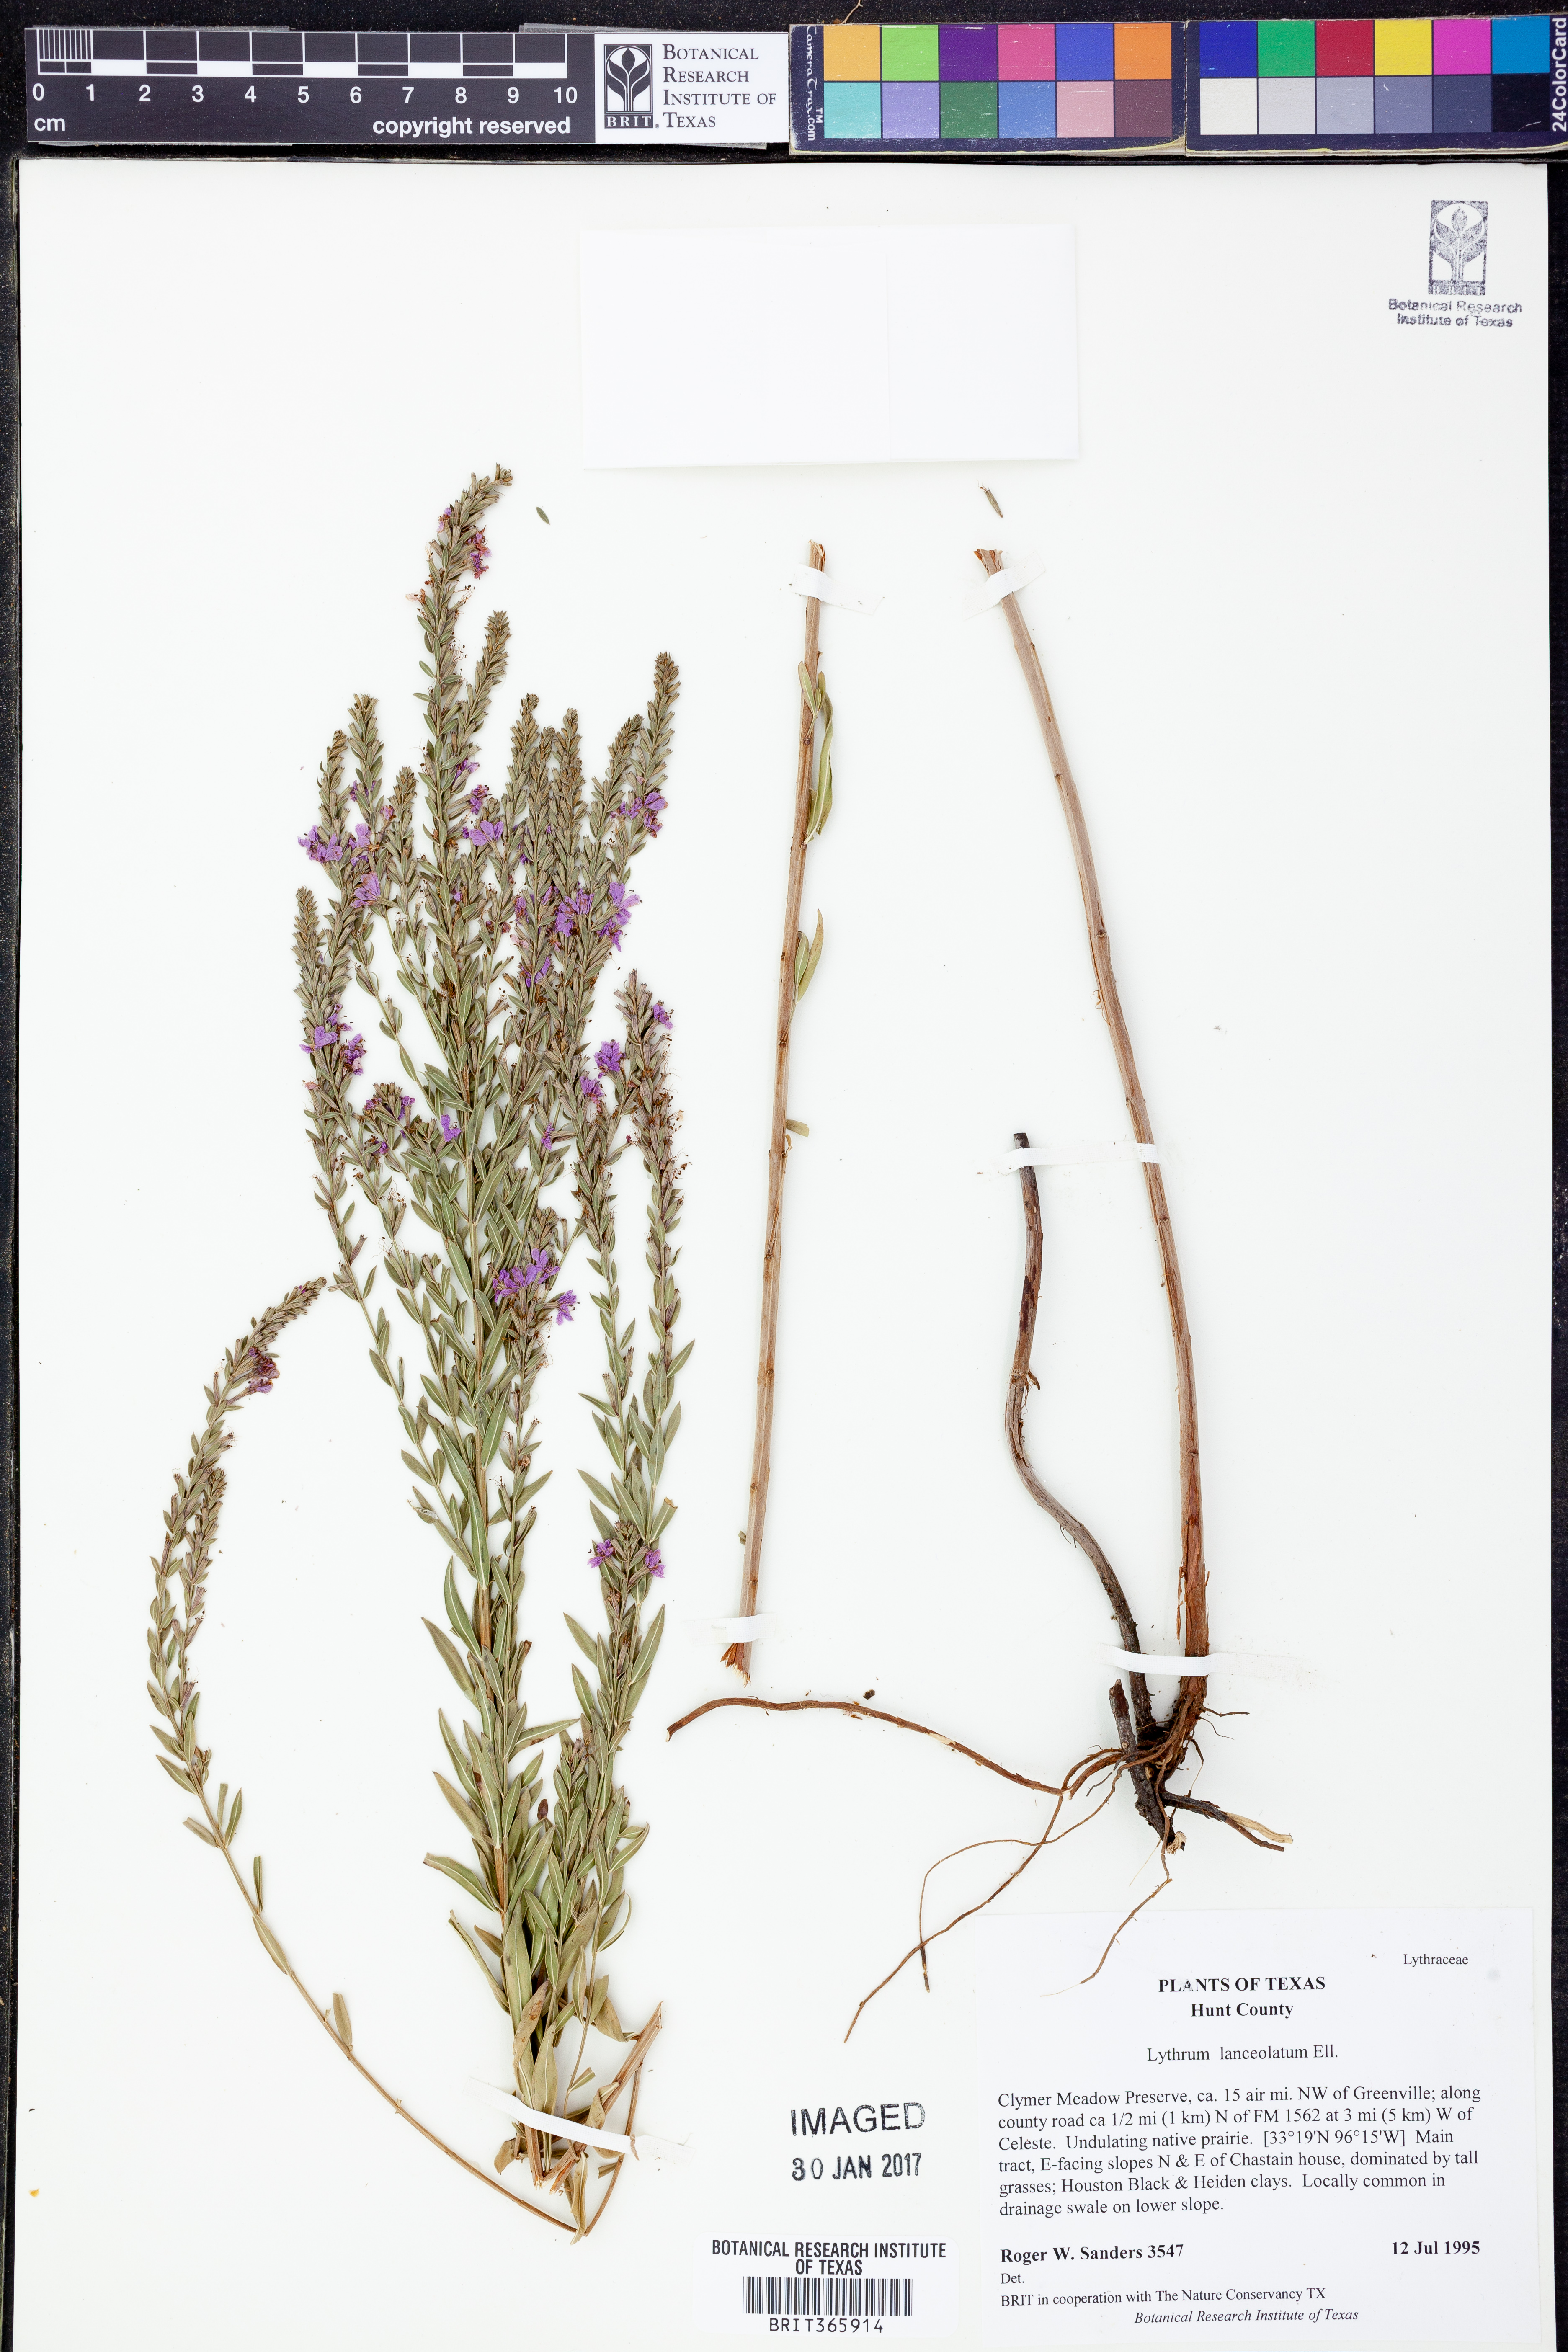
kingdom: Plantae
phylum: Tracheophyta
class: Magnoliopsida
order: Myrtales
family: Lythraceae
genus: Lythrum
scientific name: Lythrum alatum
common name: Winged loosestrife
